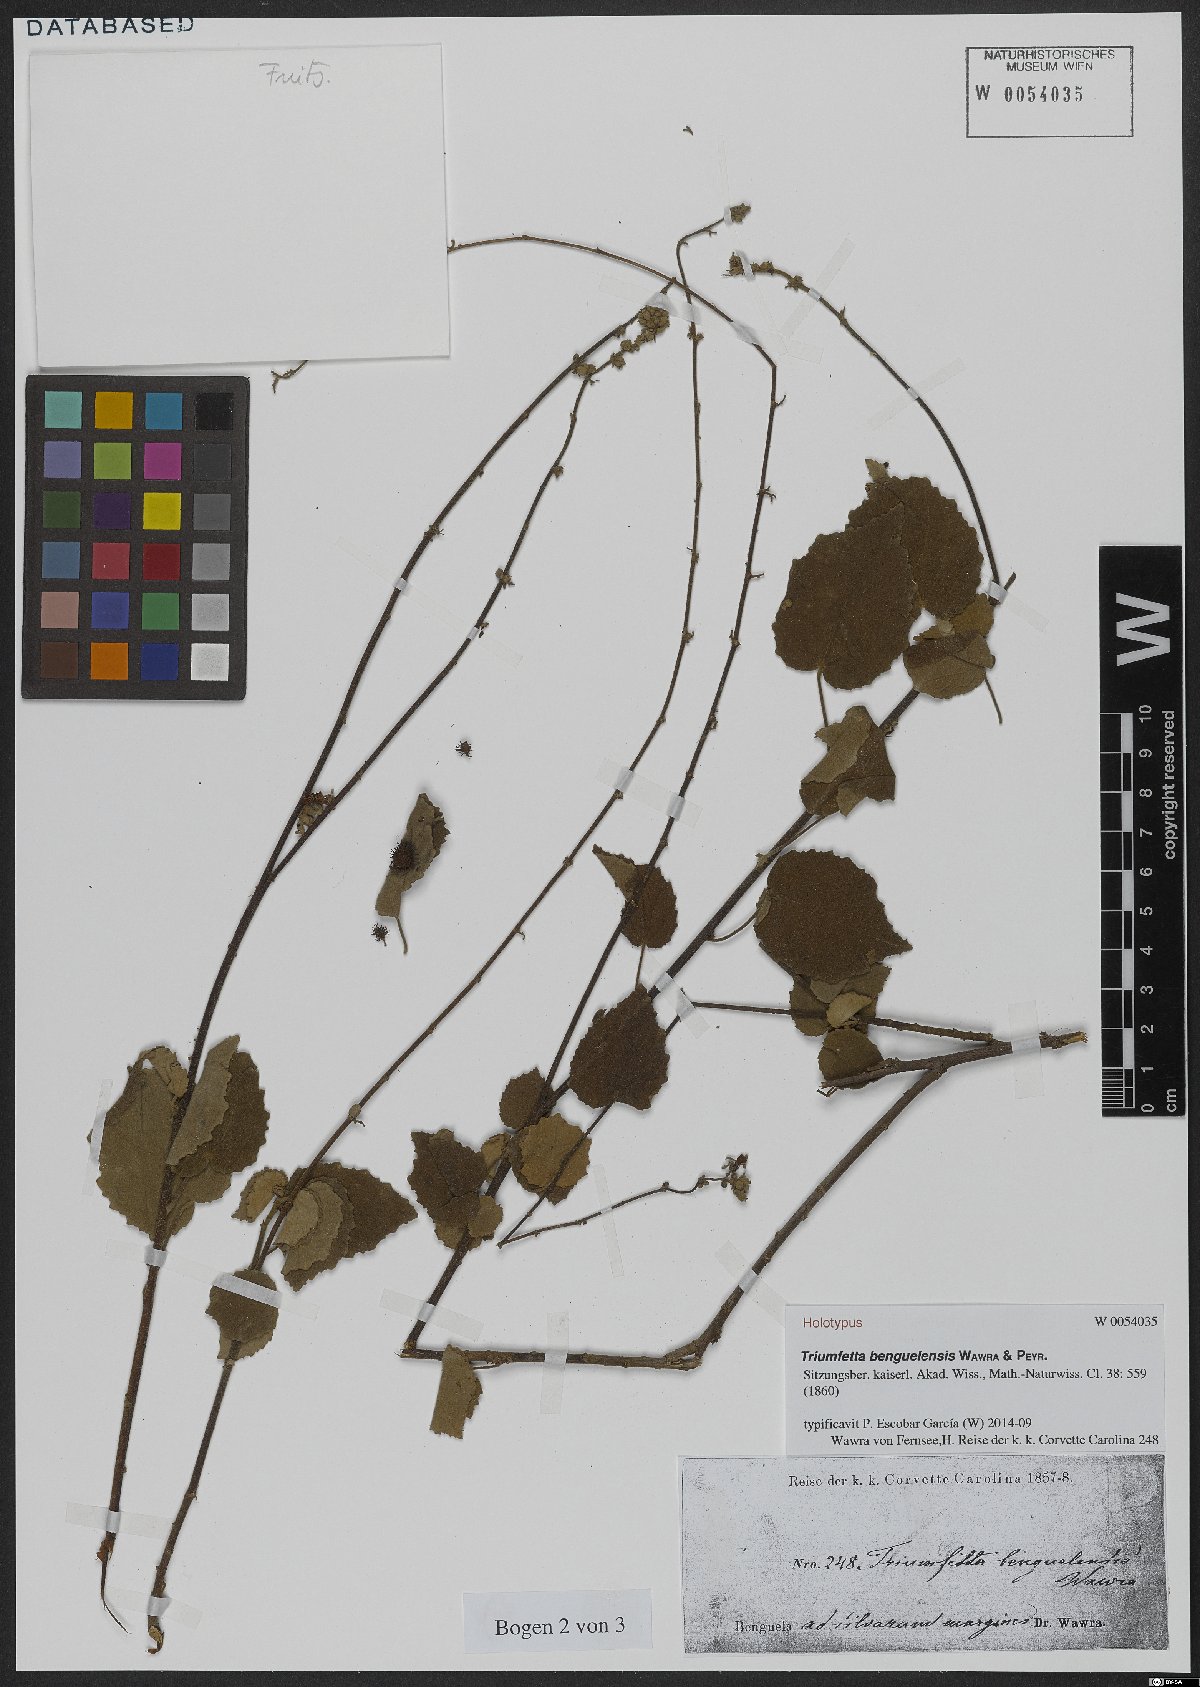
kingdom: Plantae
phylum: Tracheophyta
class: Magnoliopsida
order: Malvales
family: Malvaceae
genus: Triumfetta
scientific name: Triumfetta benguelensis
